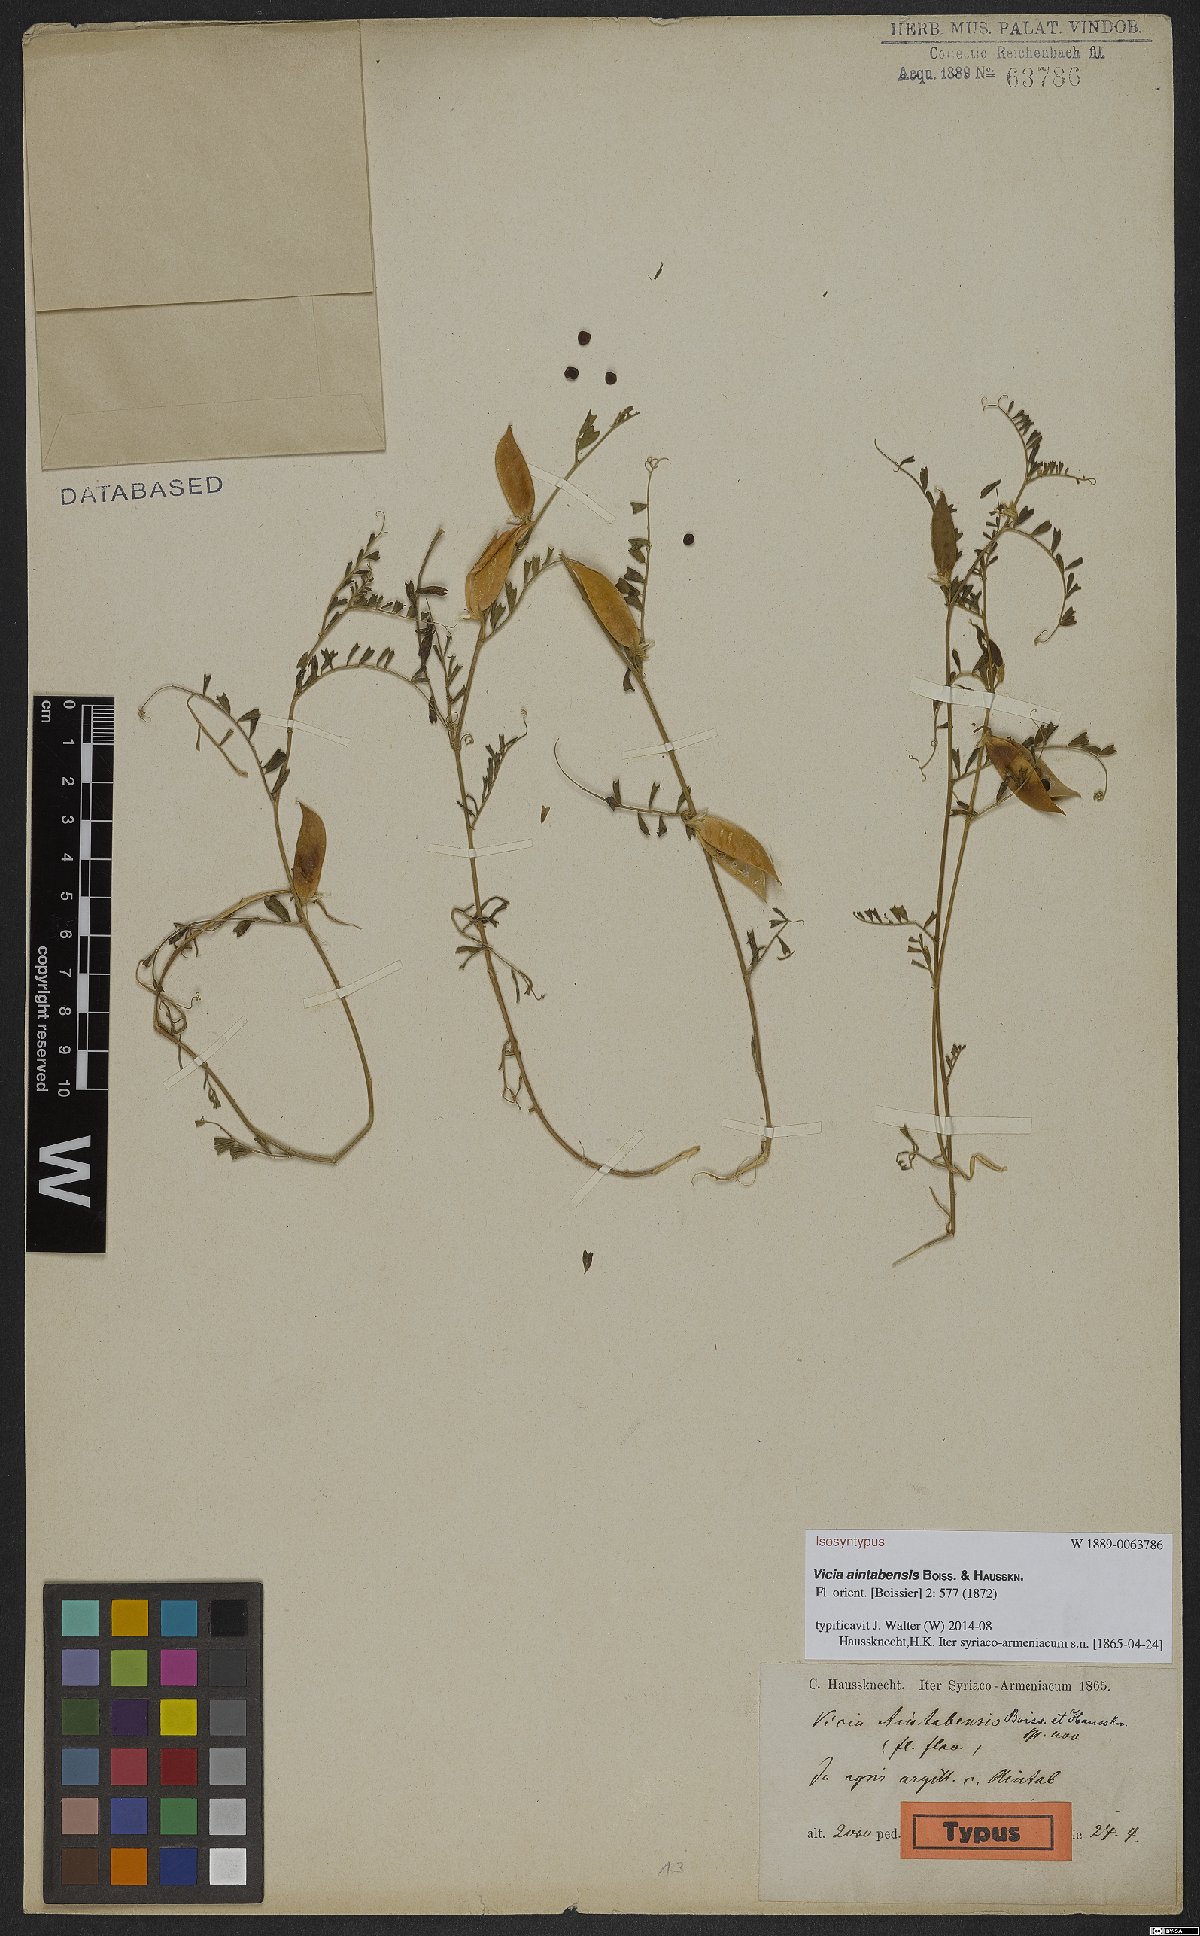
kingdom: Plantae
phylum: Tracheophyta
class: Magnoliopsida
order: Fabales
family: Fabaceae
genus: Vicia
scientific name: Vicia aintabensis
